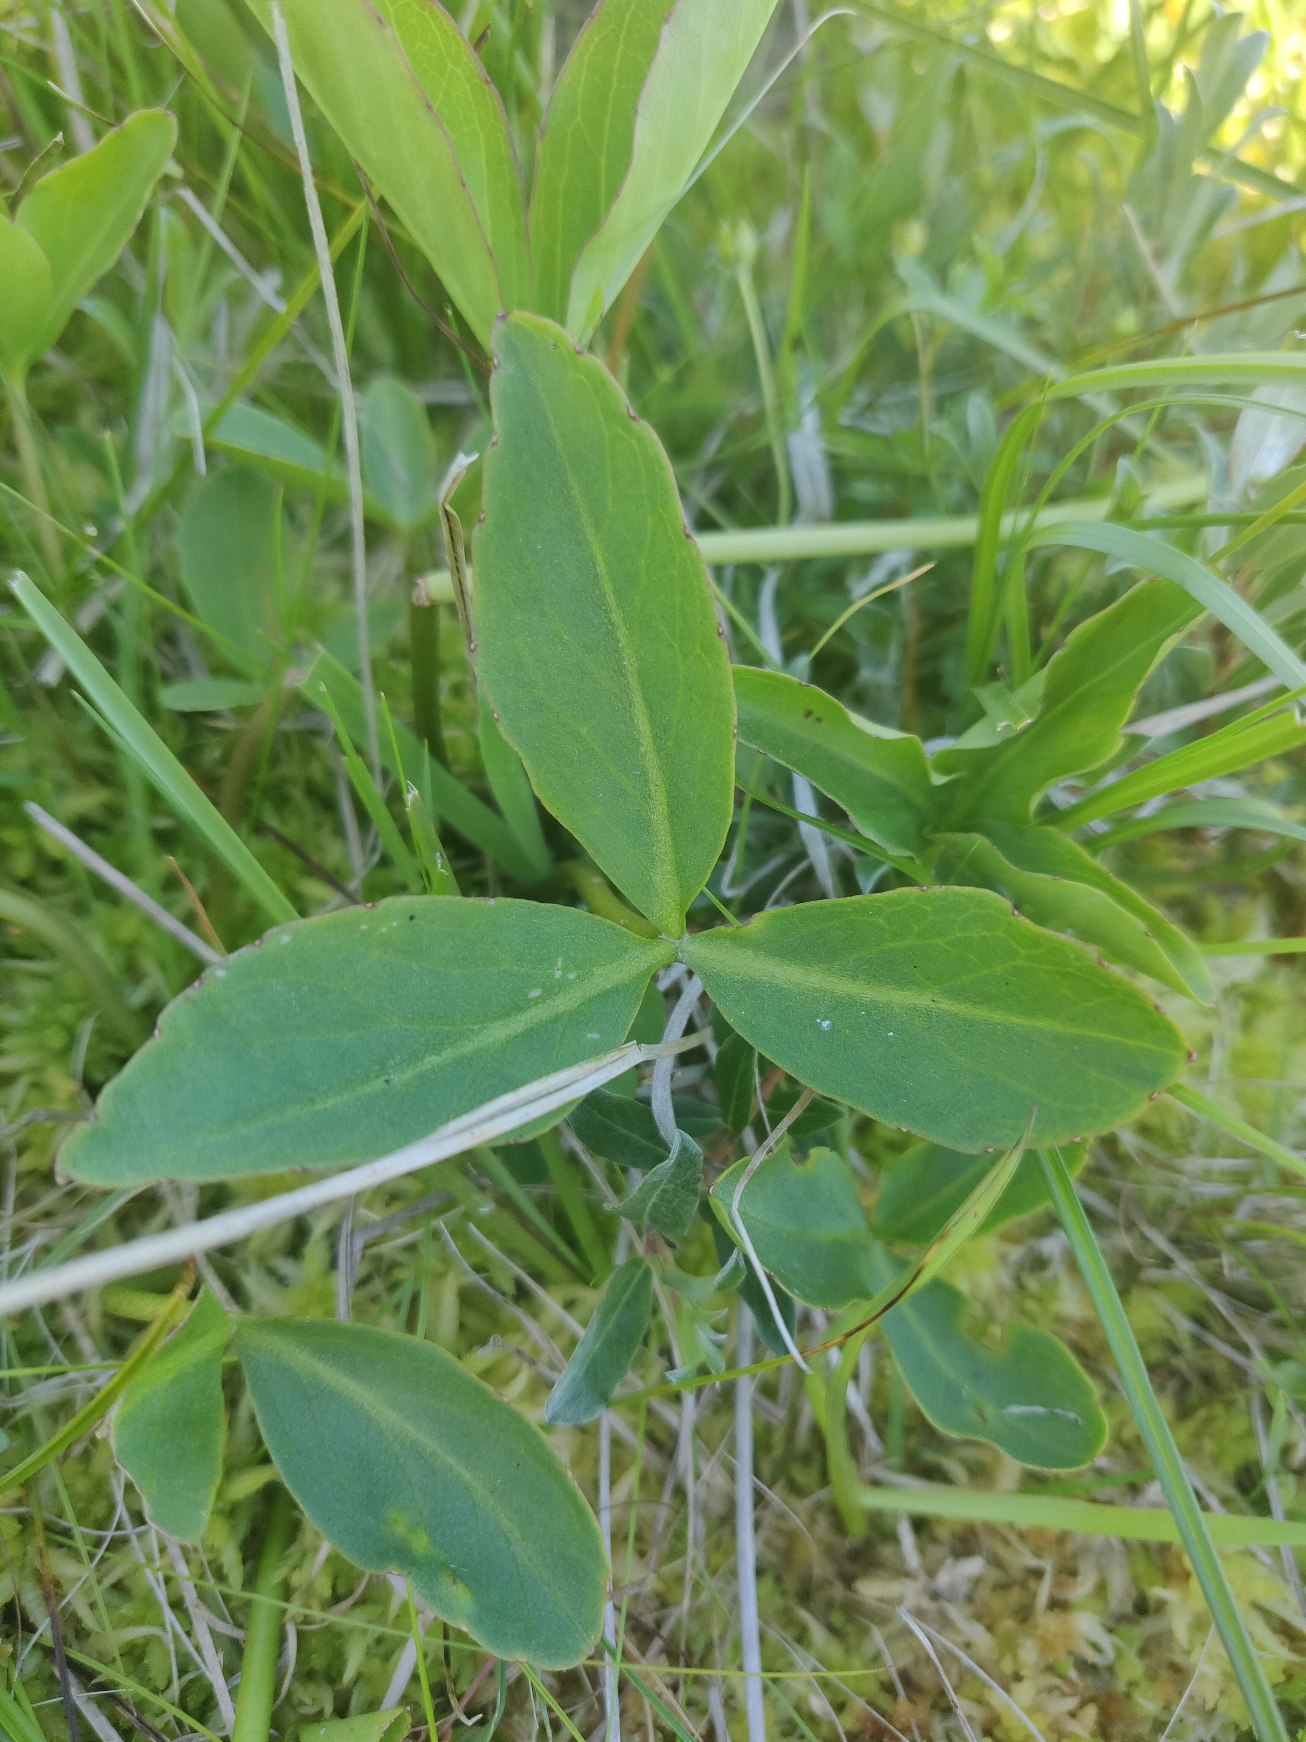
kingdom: Plantae
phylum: Tracheophyta
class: Magnoliopsida
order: Asterales
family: Menyanthaceae
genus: Menyanthes
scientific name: Menyanthes trifoliata
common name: Bukkeblad
